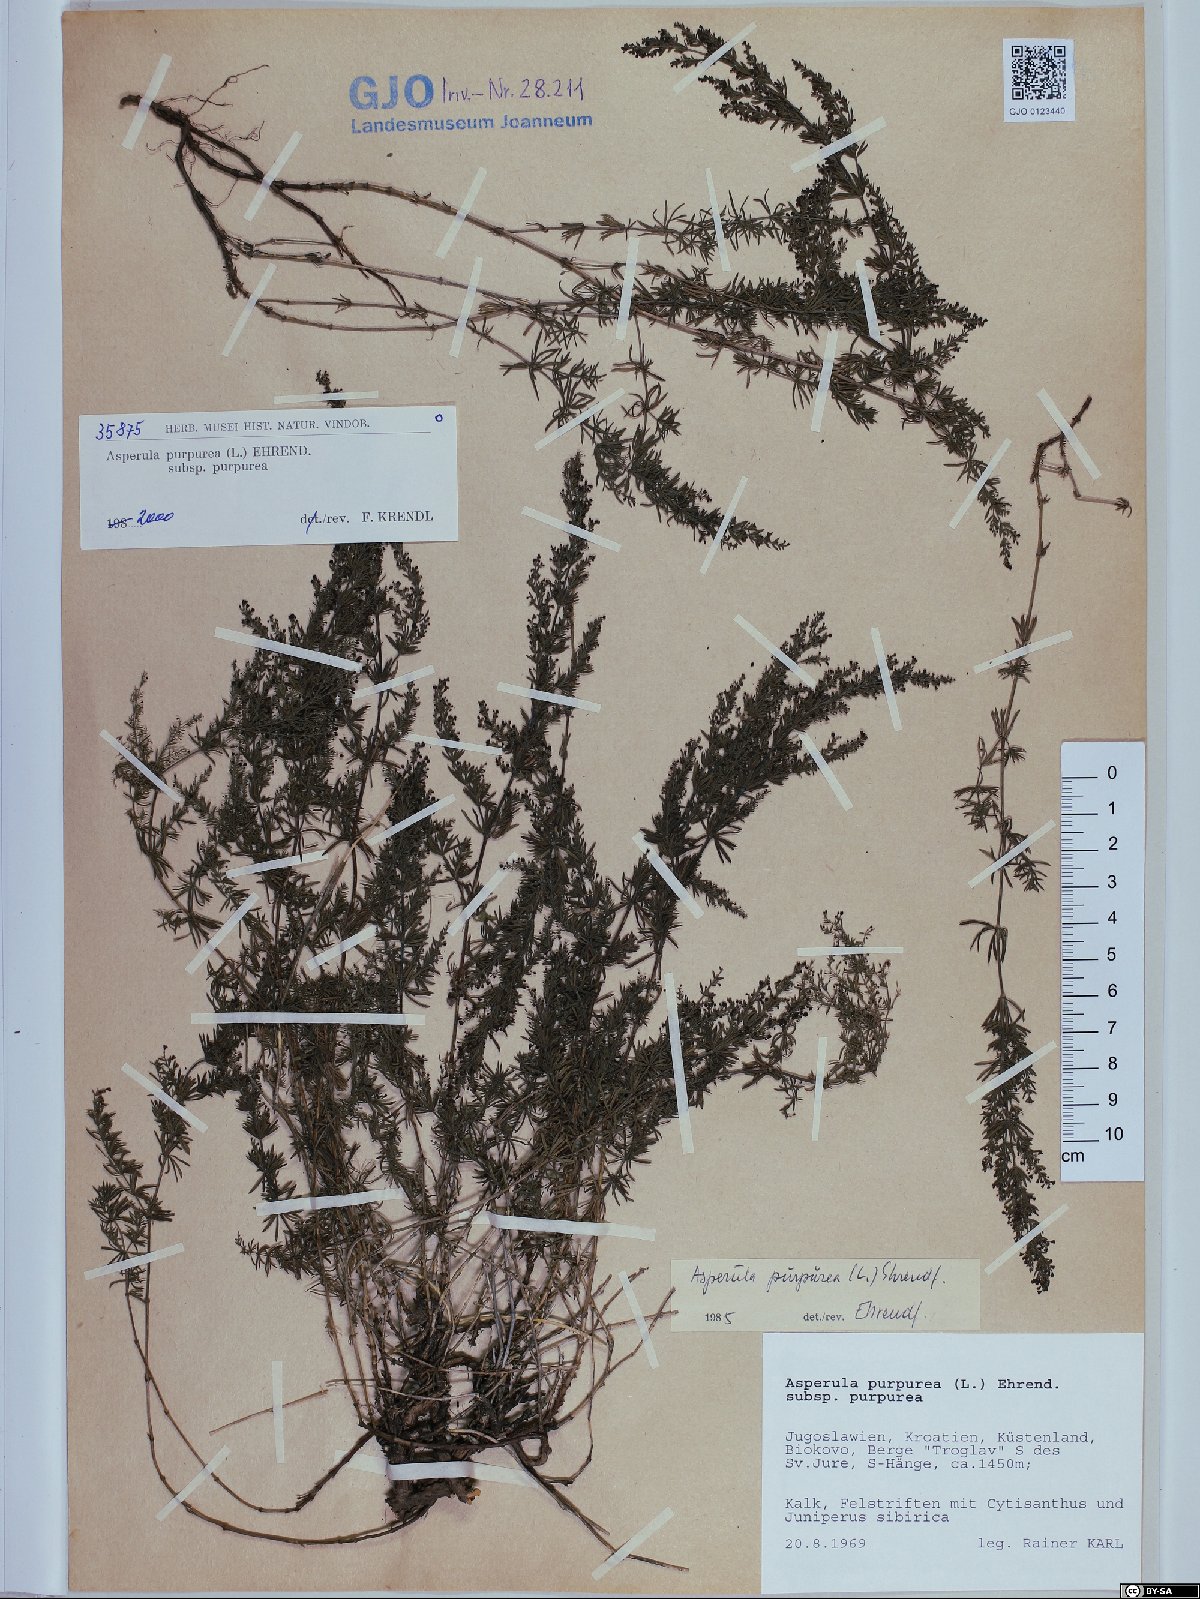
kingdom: Plantae
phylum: Tracheophyta
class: Magnoliopsida
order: Gentianales
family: Rubiaceae
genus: Thliphthisa
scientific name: Thliphthisa purpurea
